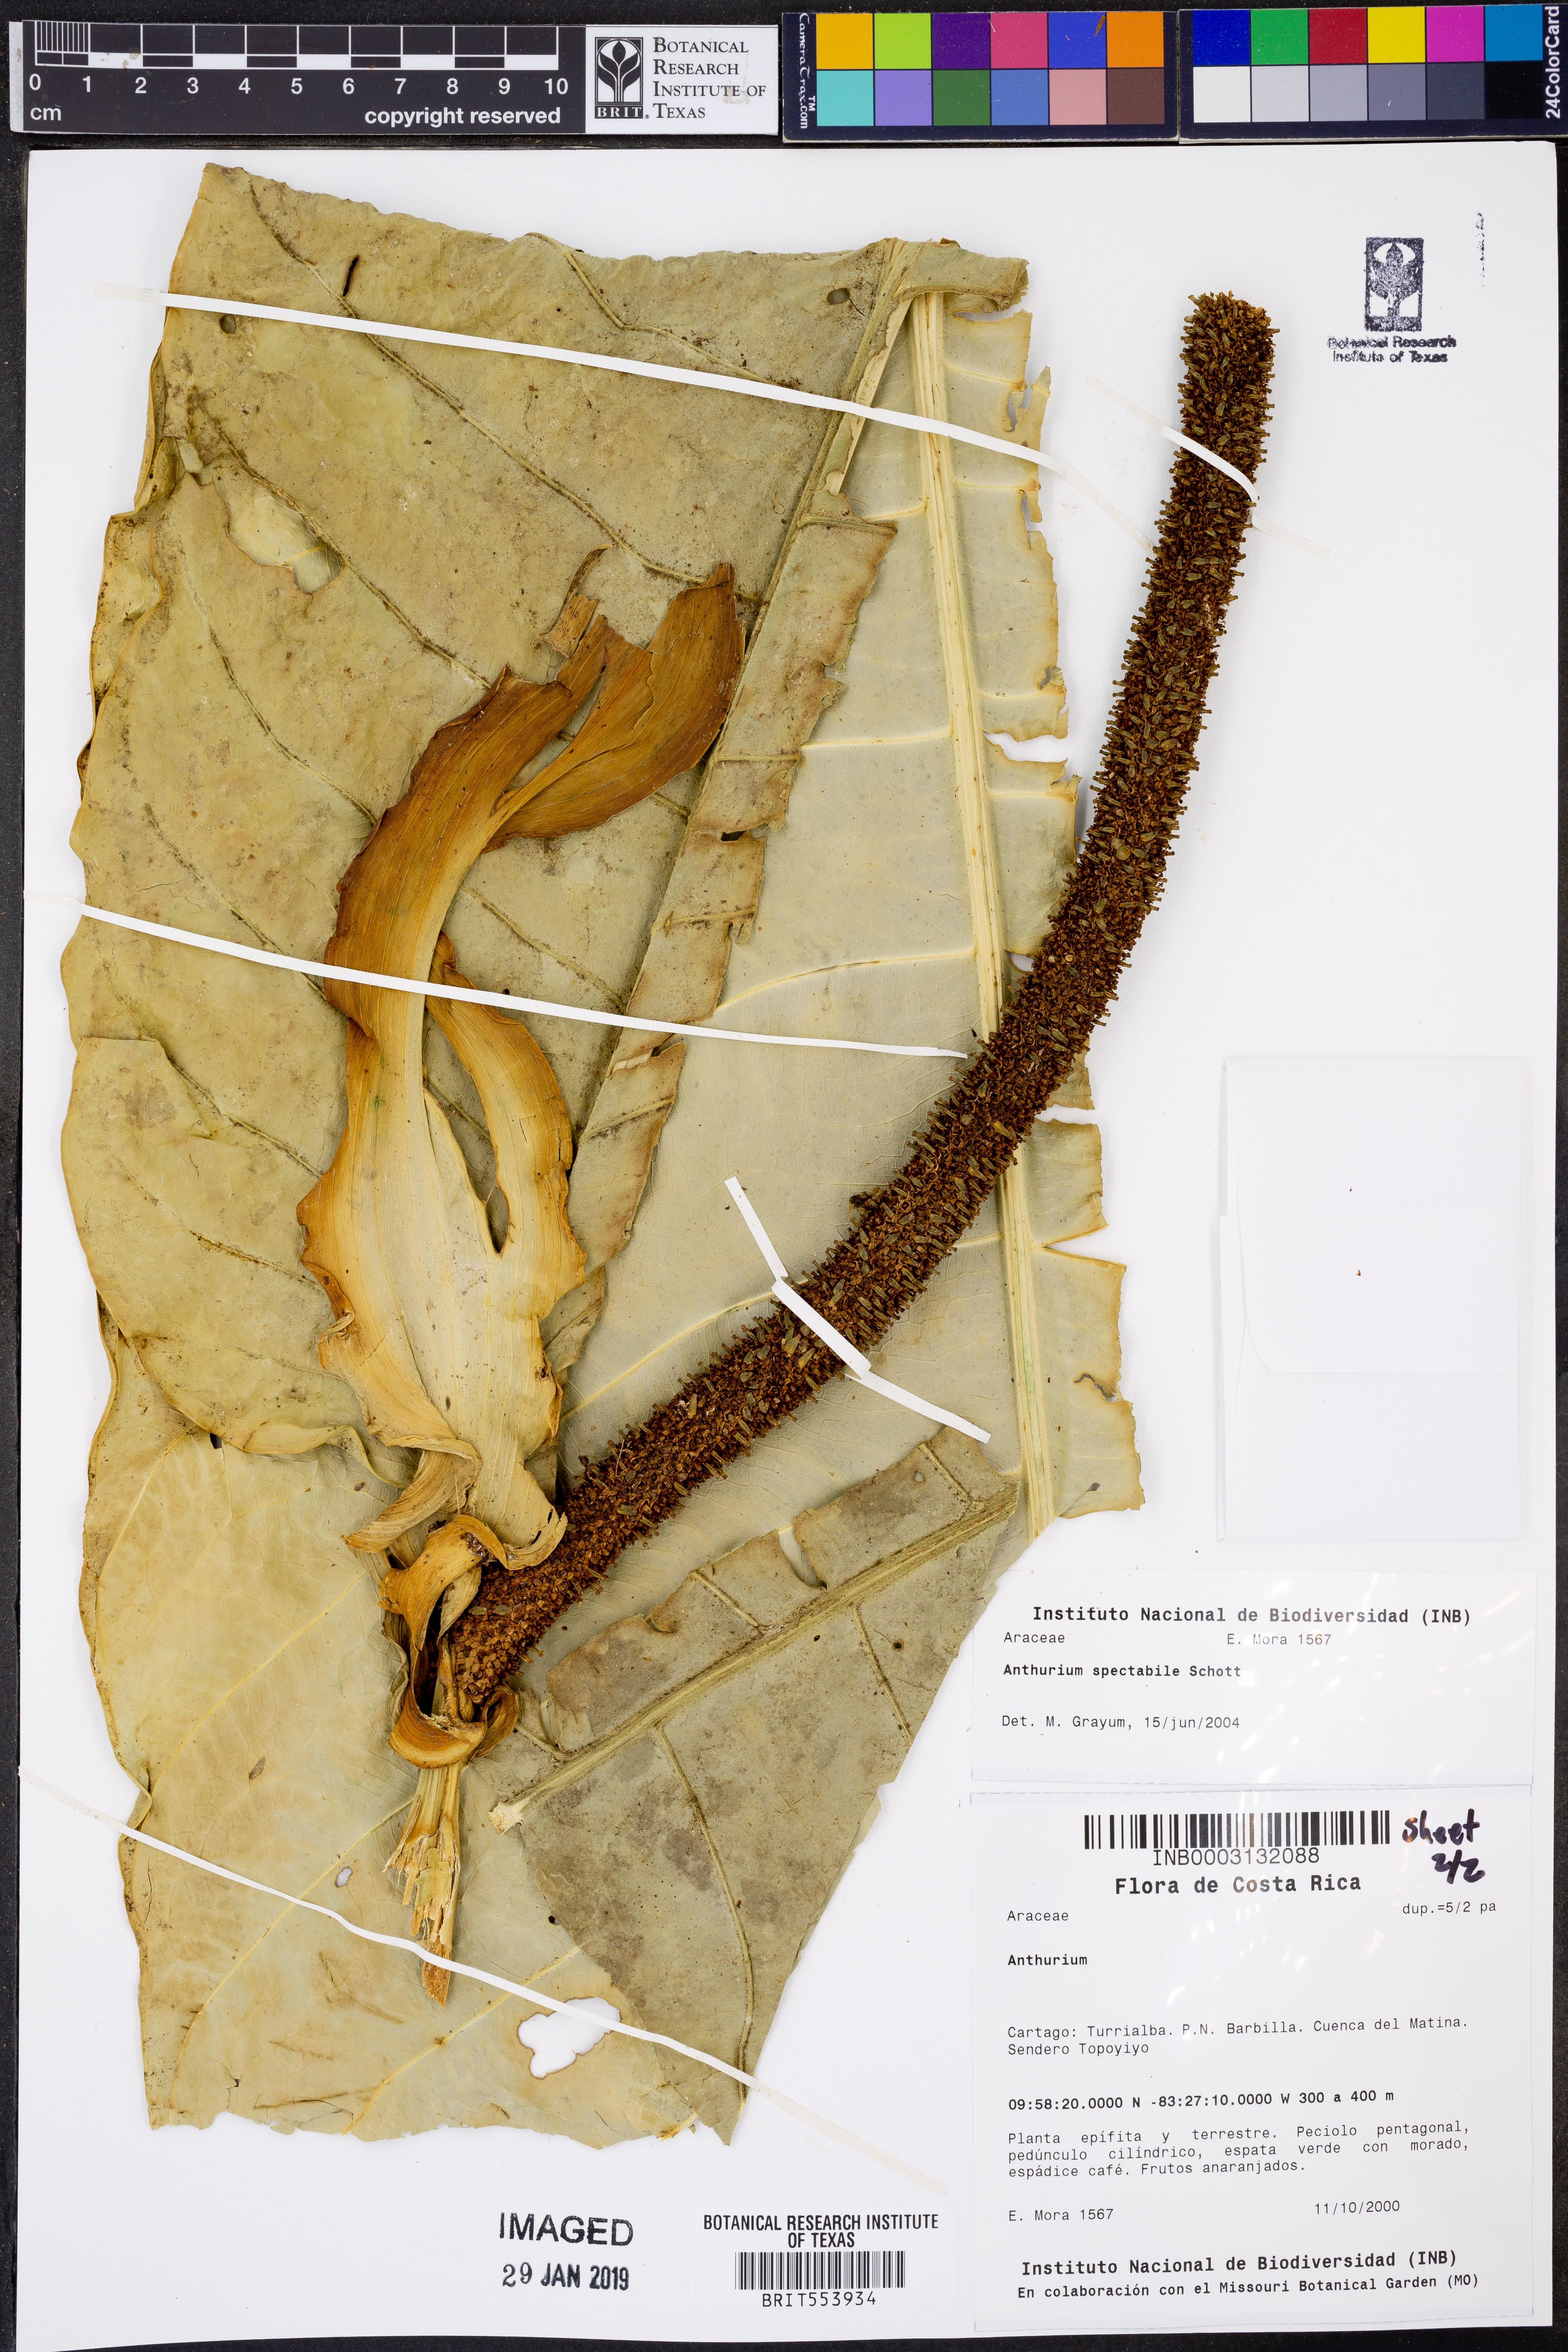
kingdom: Plantae
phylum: Tracheophyta
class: Liliopsida
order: Alismatales
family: Araceae
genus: Anthurium
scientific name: Anthurium spectabile
